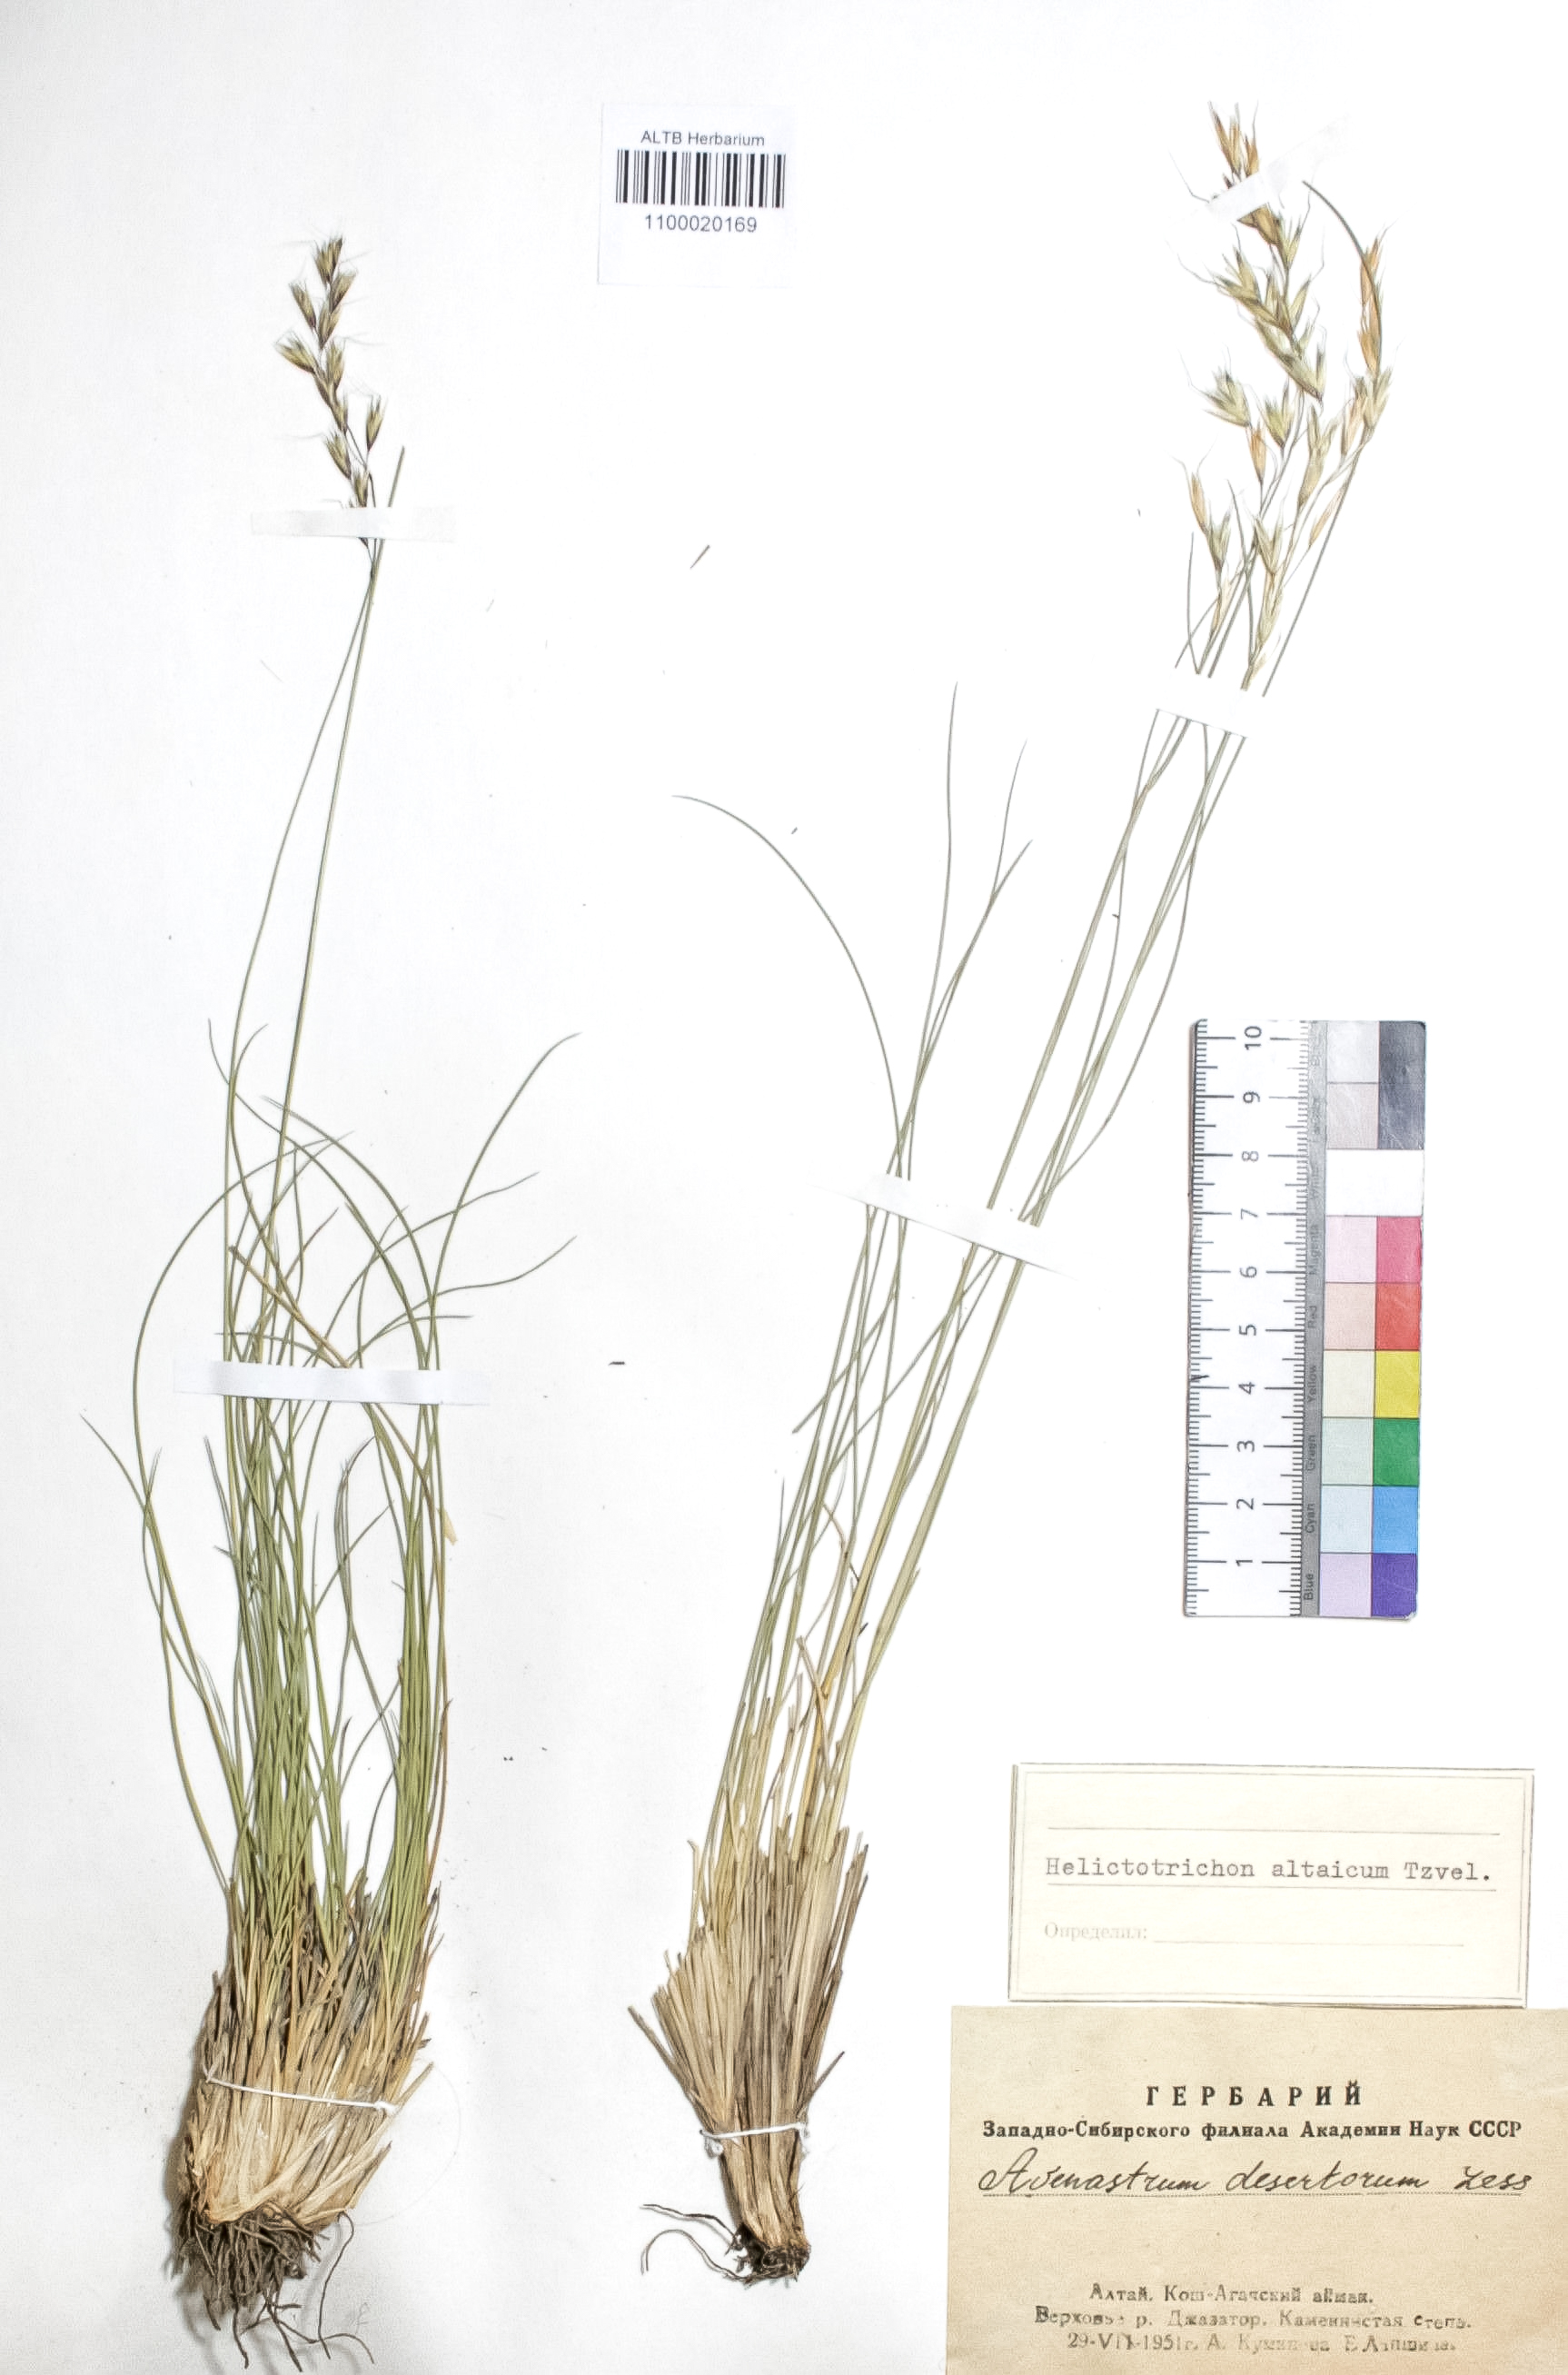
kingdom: Plantae
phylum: Tracheophyta
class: Liliopsida
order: Poales
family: Poaceae
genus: Helictotrichon
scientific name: Helictotrichon desertorum
